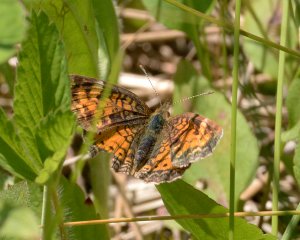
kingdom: Animalia
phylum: Arthropoda
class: Insecta
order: Lepidoptera
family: Nymphalidae
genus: Phyciodes
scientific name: Phyciodes tharos
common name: Northern Crescent
